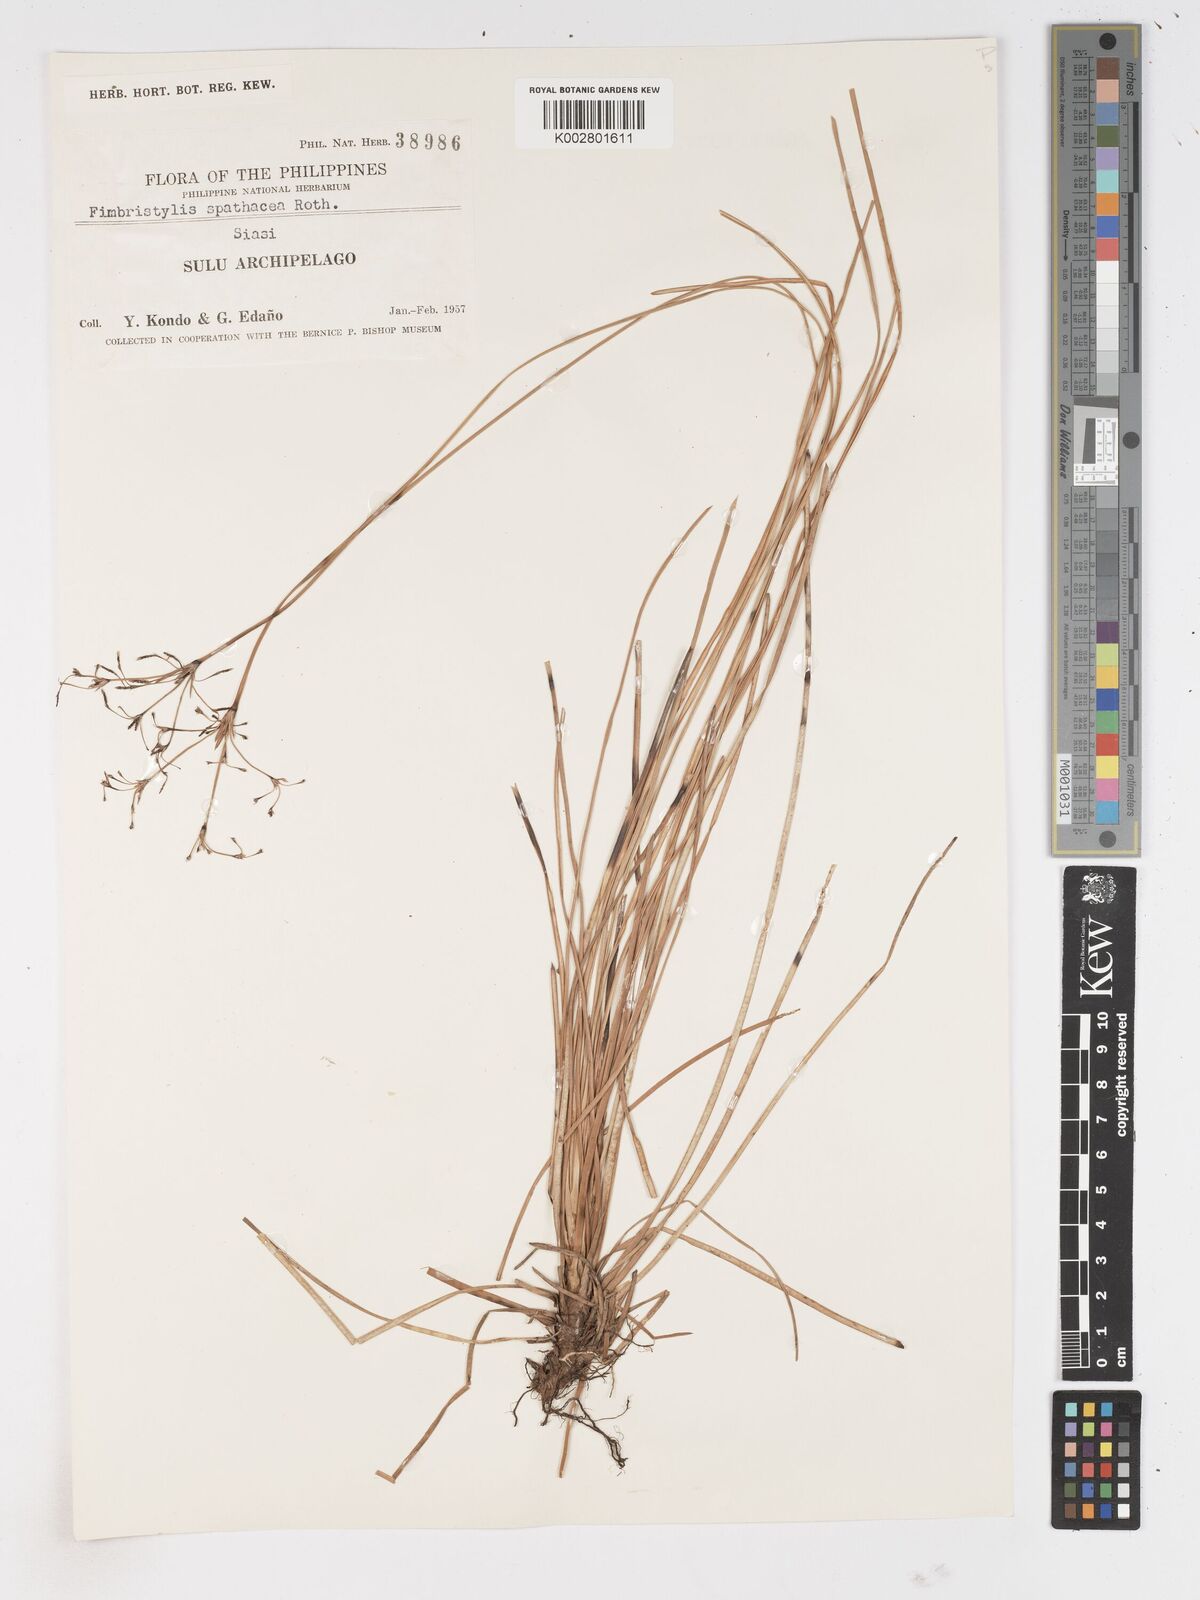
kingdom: Plantae
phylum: Tracheophyta
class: Liliopsida
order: Poales
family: Cyperaceae
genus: Fimbristylis
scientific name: Fimbristylis cymosa
